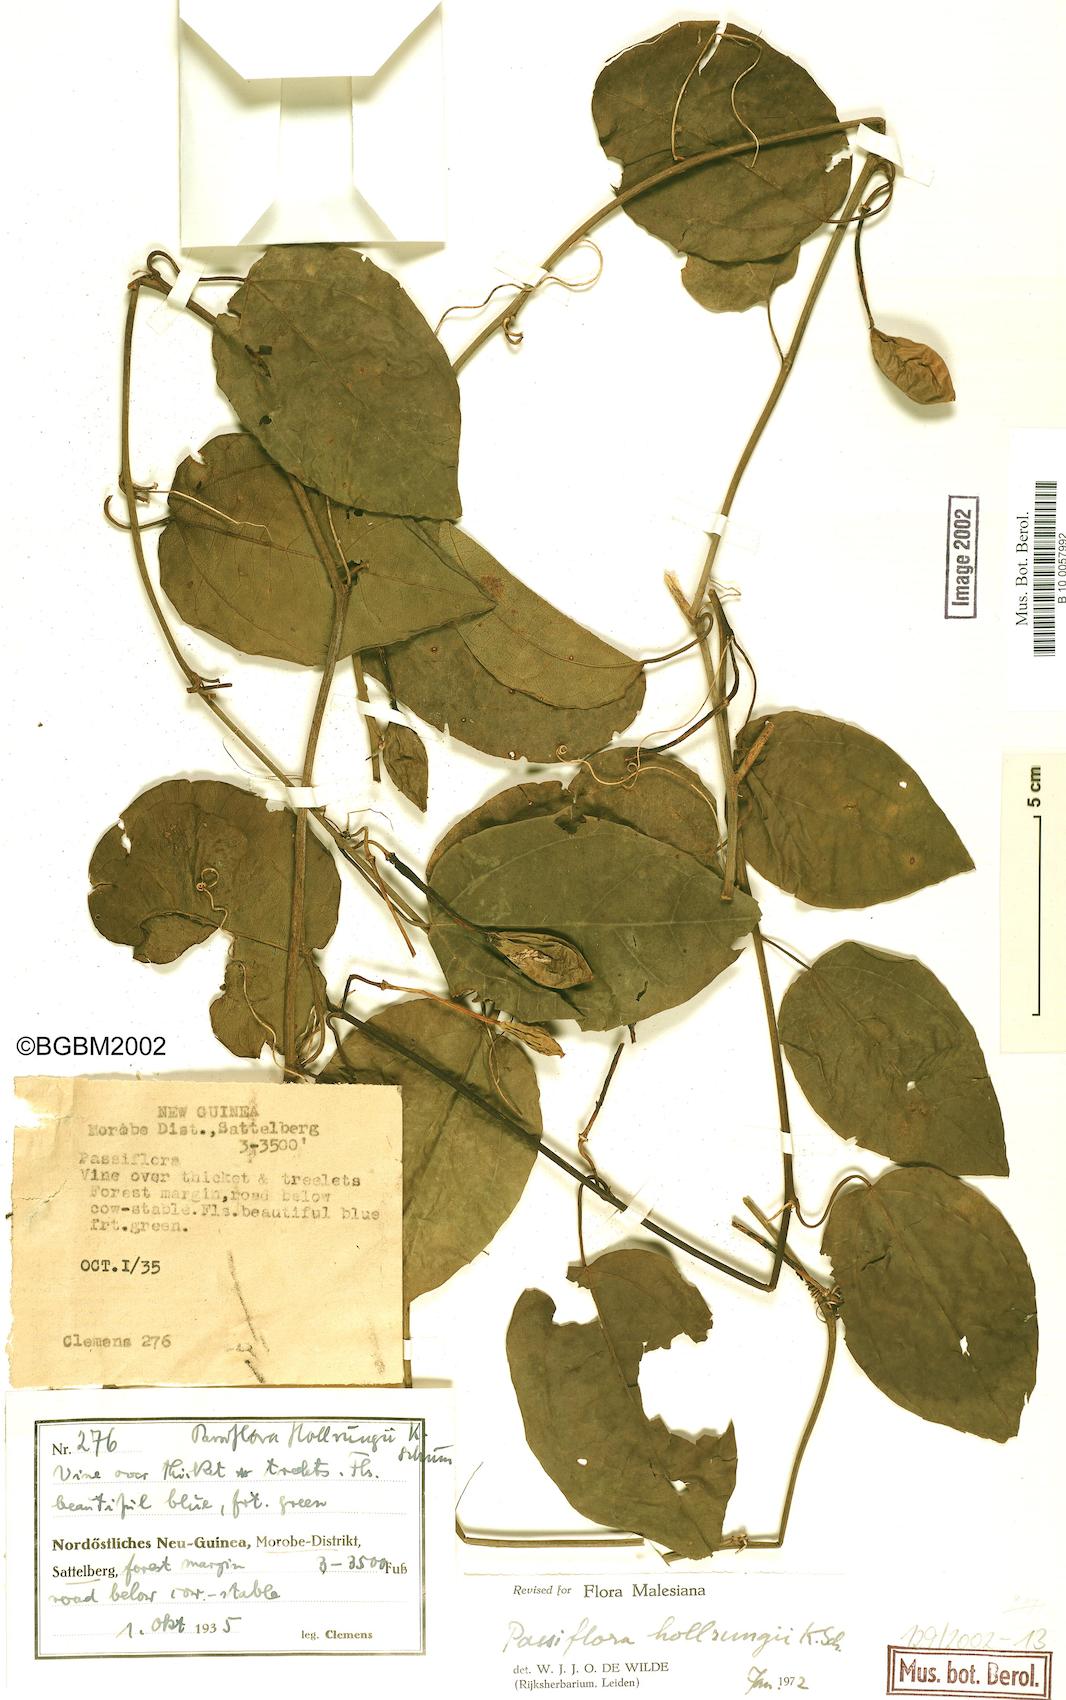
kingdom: Plantae
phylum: Tracheophyta
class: Magnoliopsida
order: Malpighiales
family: Passifloraceae
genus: Passiflora
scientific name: Passiflora hollrungii
